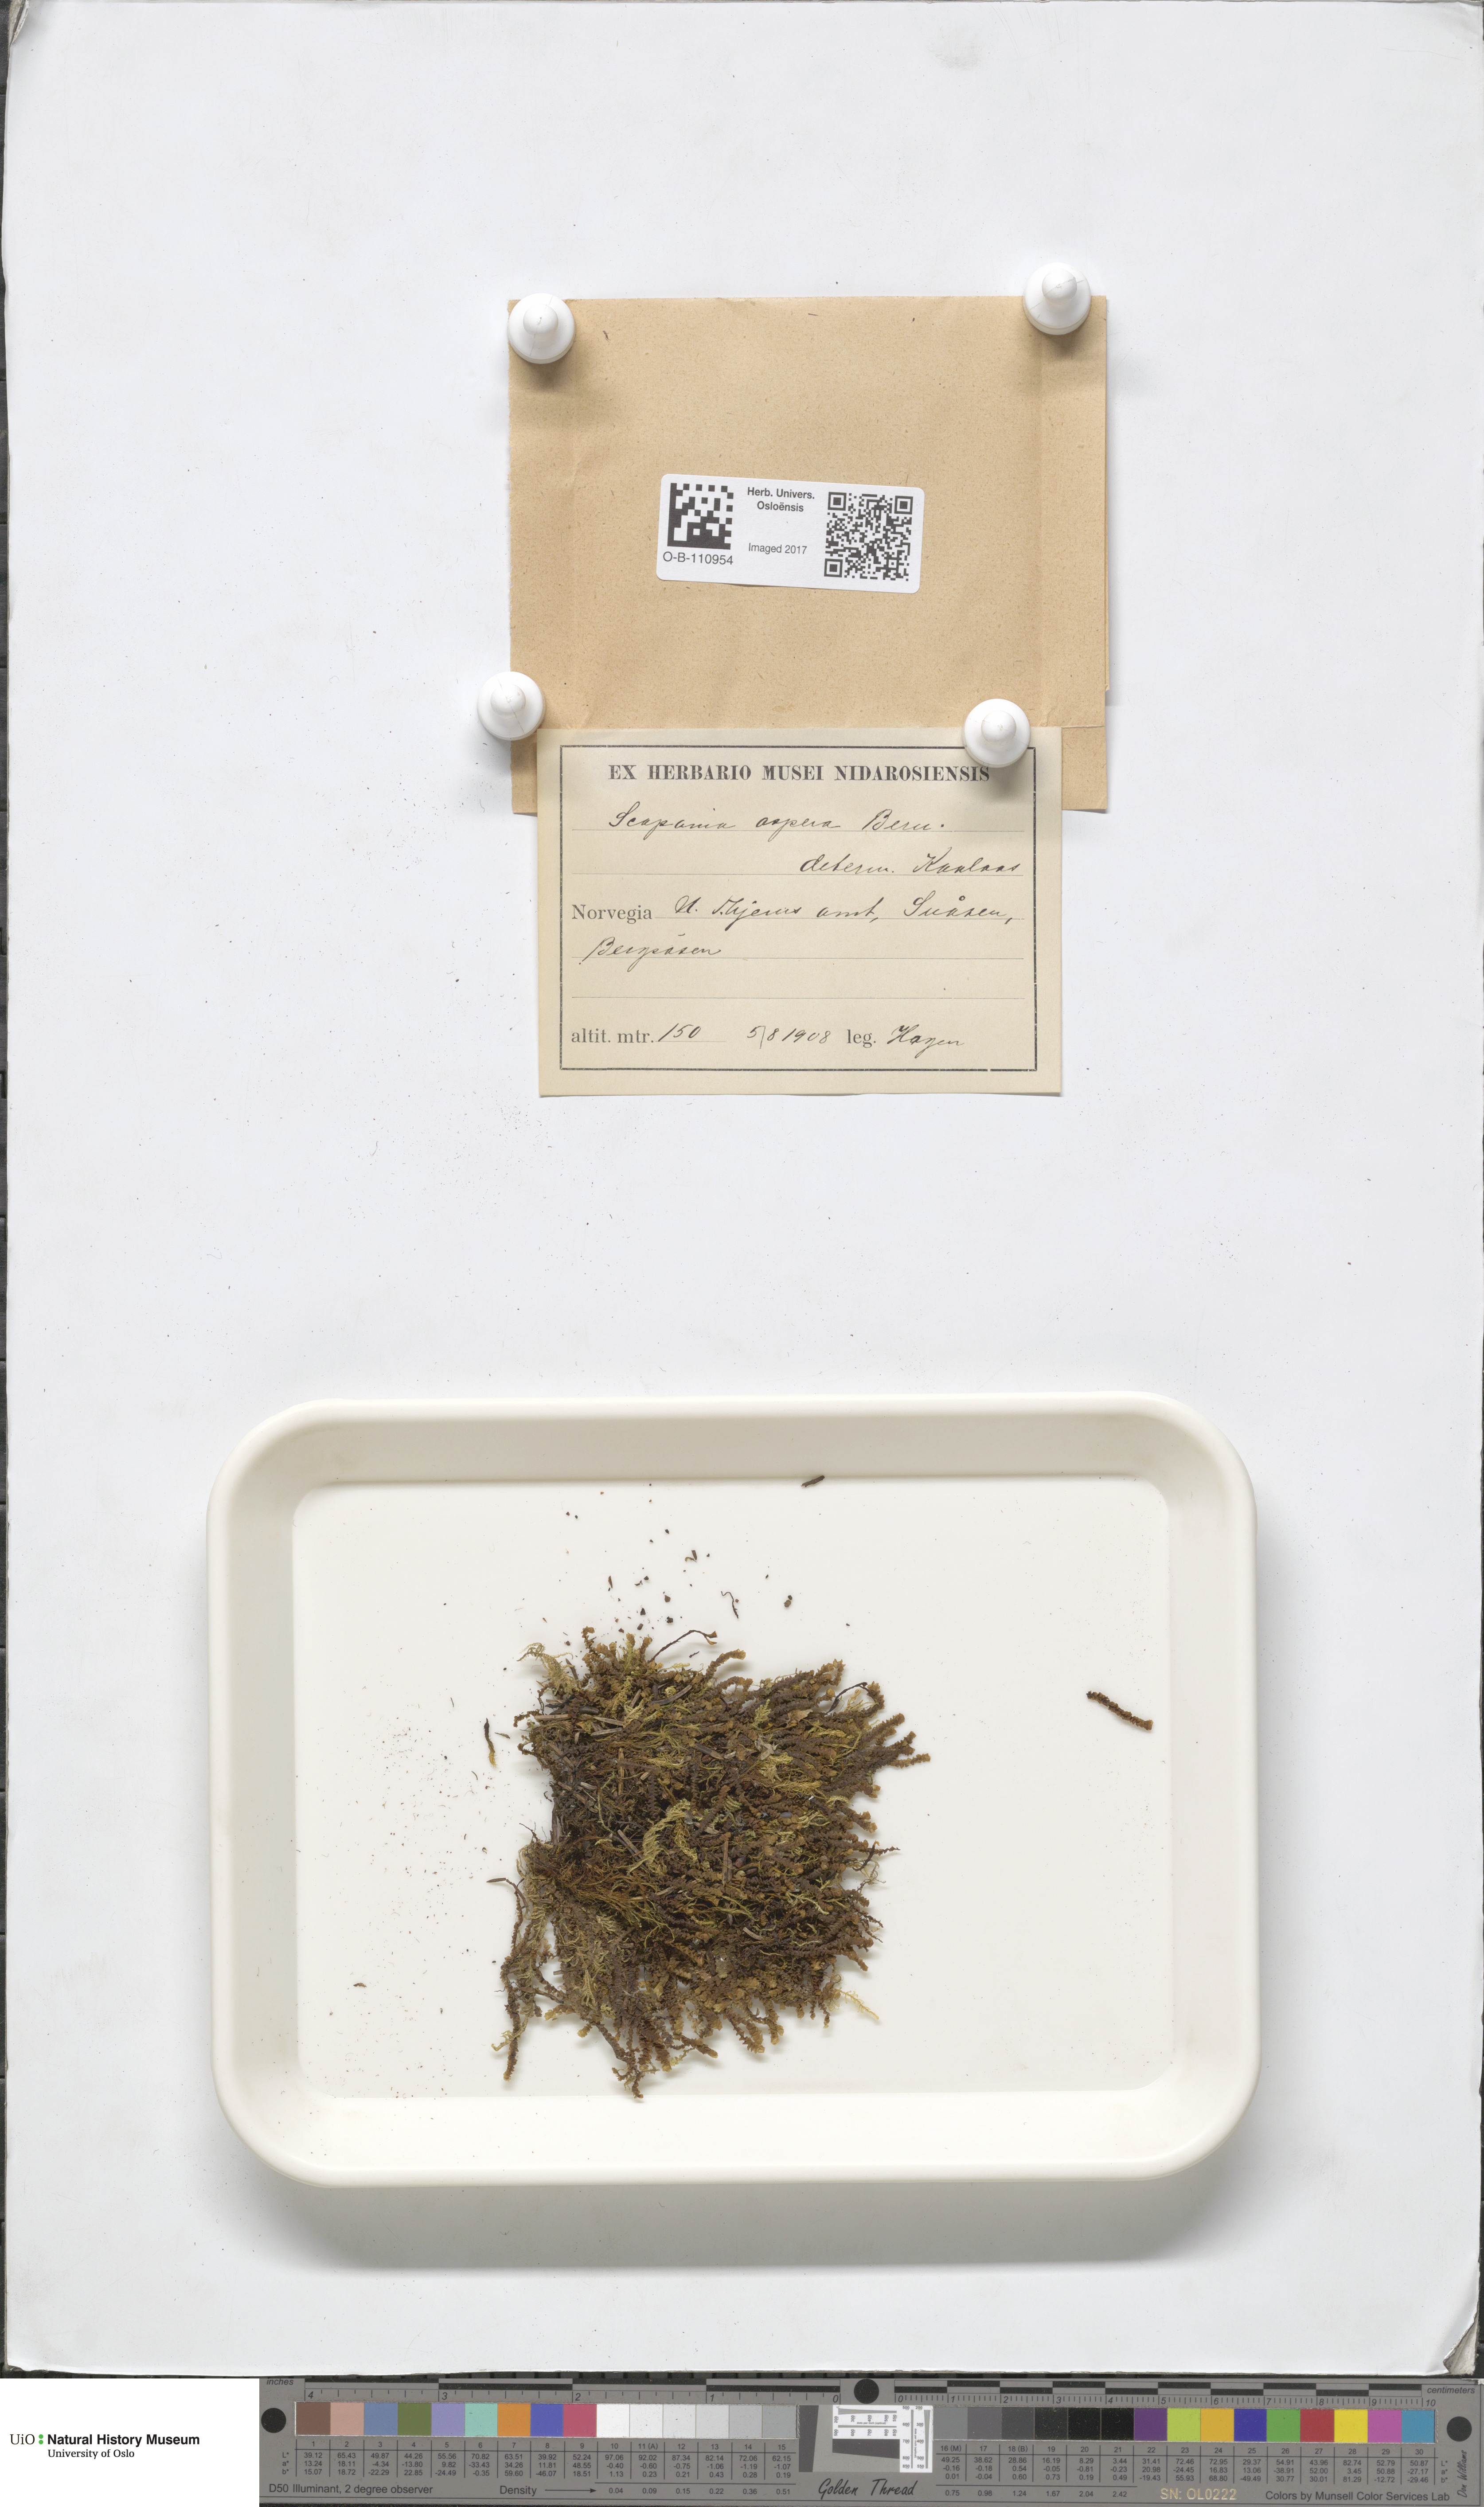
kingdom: Plantae
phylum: Marchantiophyta
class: Jungermanniopsida
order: Jungermanniales
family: Scapaniaceae
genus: Scapania
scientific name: Scapania aspera
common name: Rough earwort
